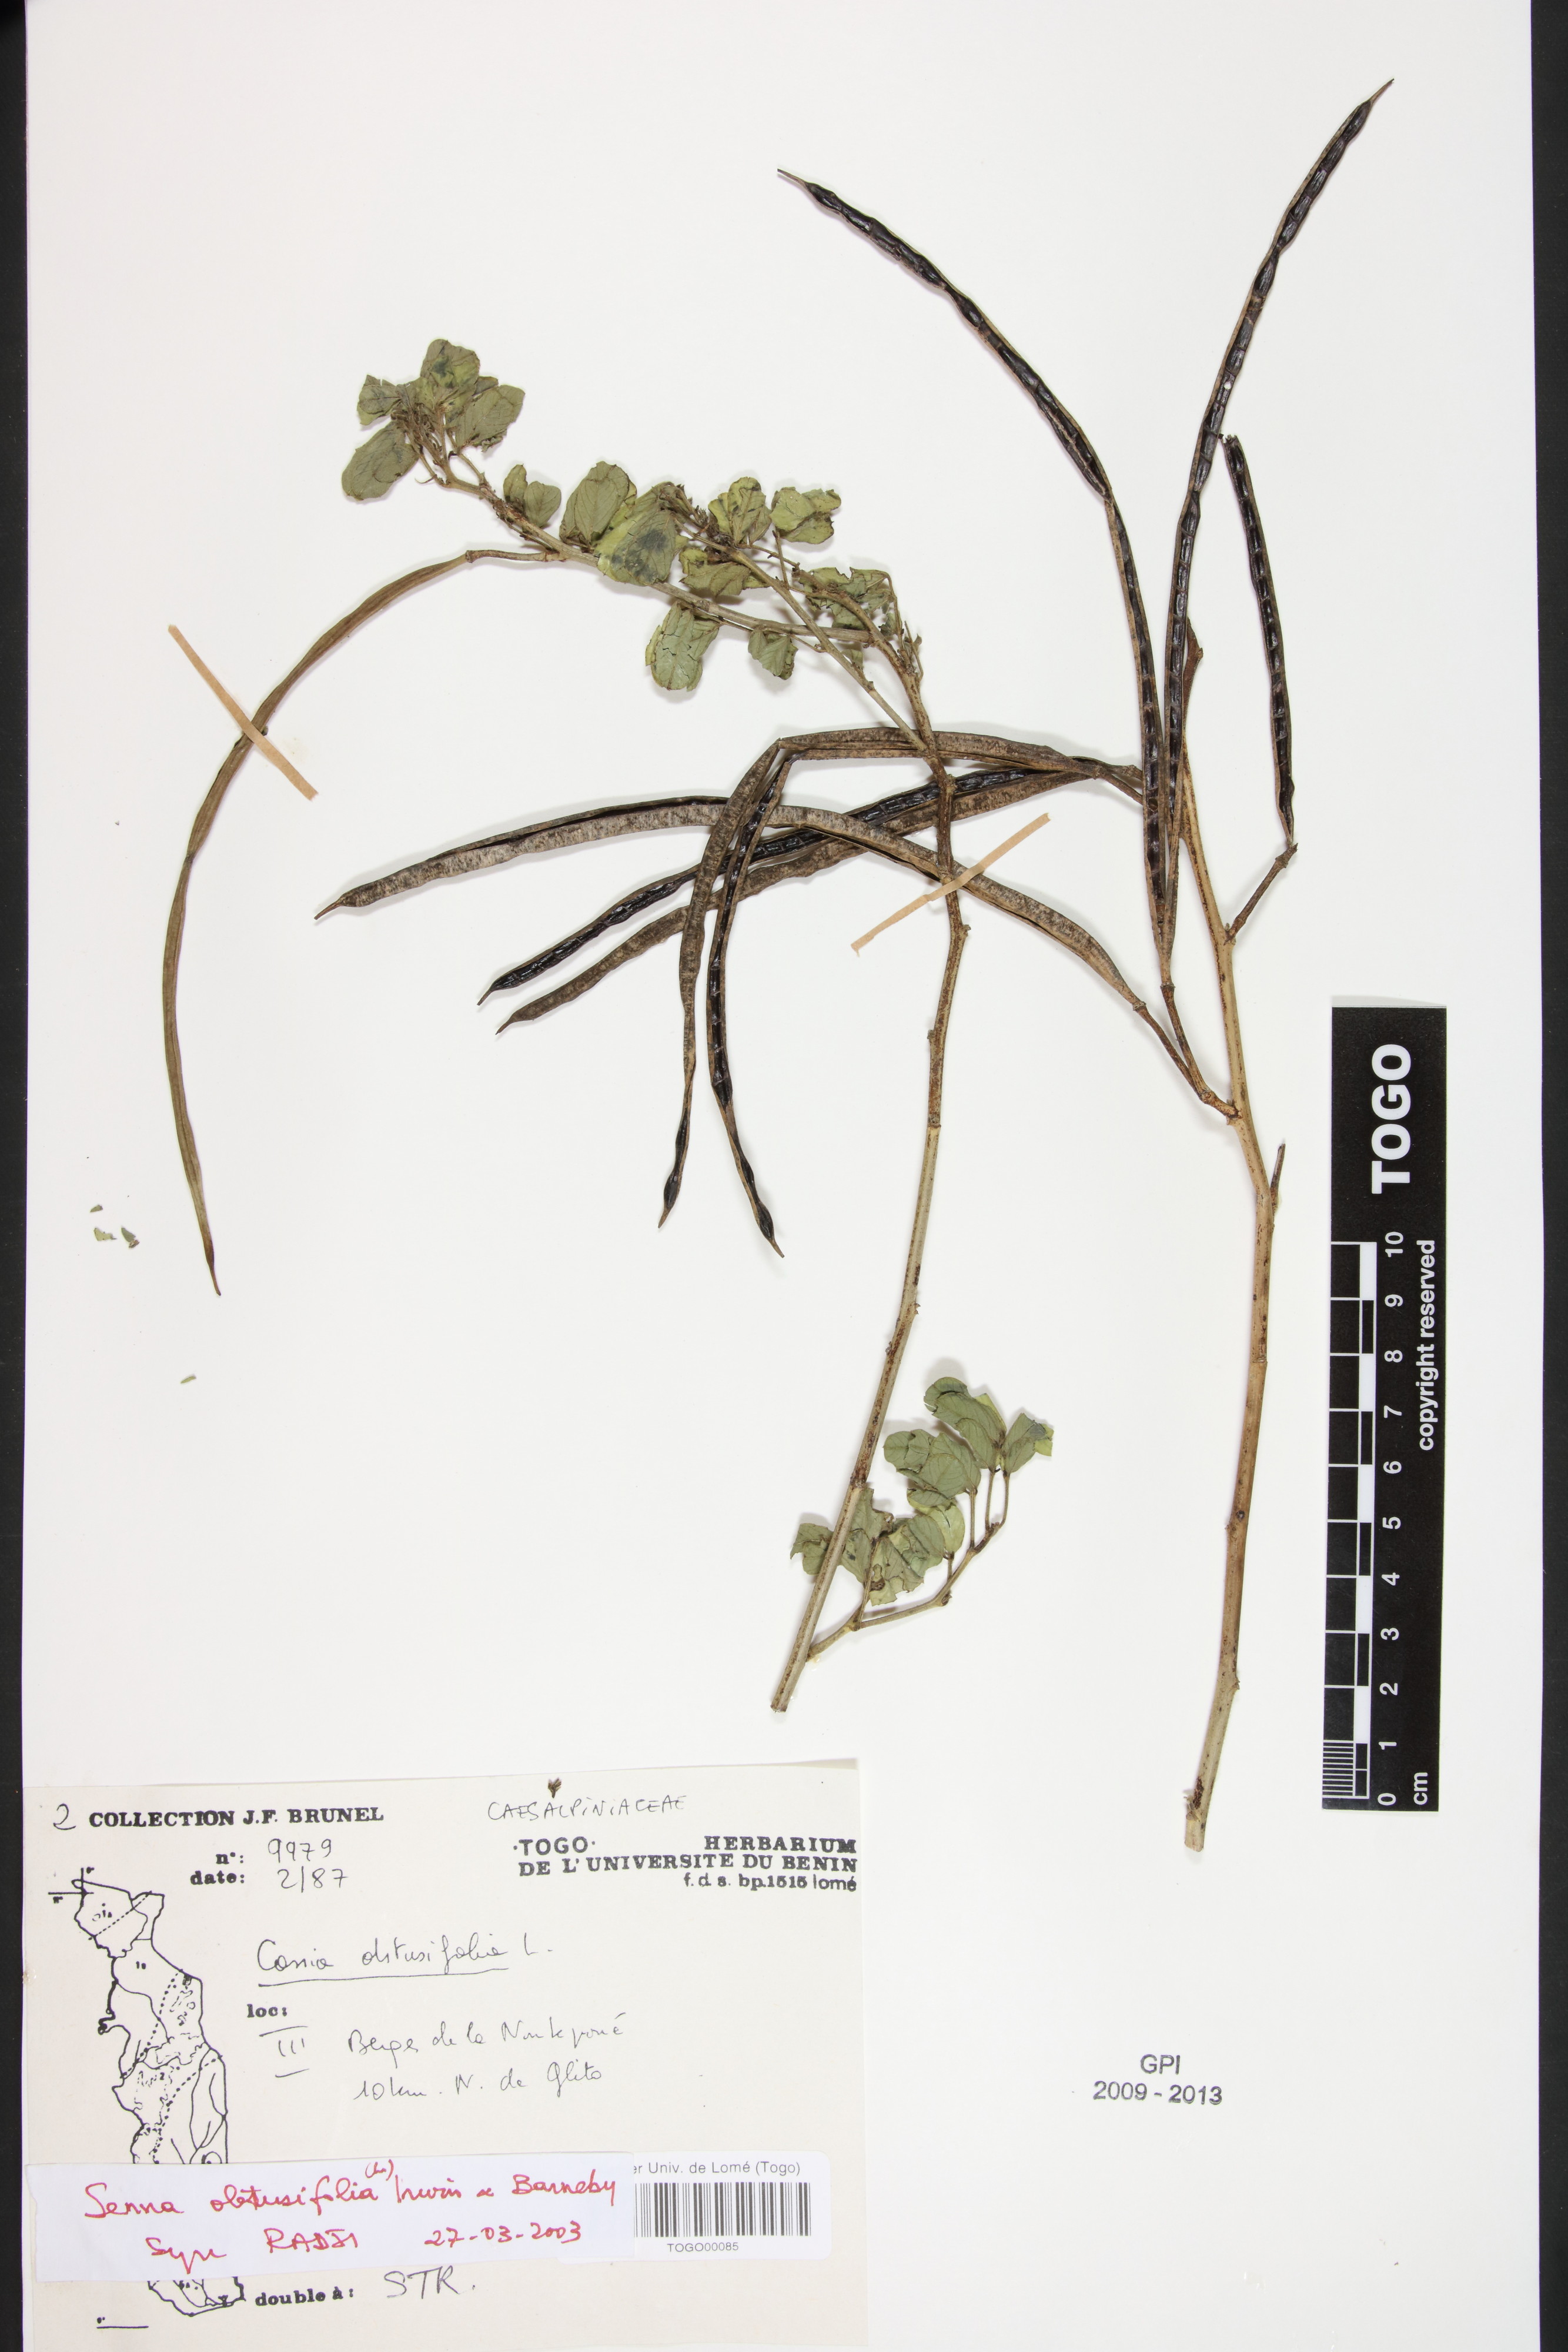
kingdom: Plantae
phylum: Tracheophyta
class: Magnoliopsida
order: Fabales
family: Fabaceae
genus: Senna
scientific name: Senna obtusifolia
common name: Java-bean
